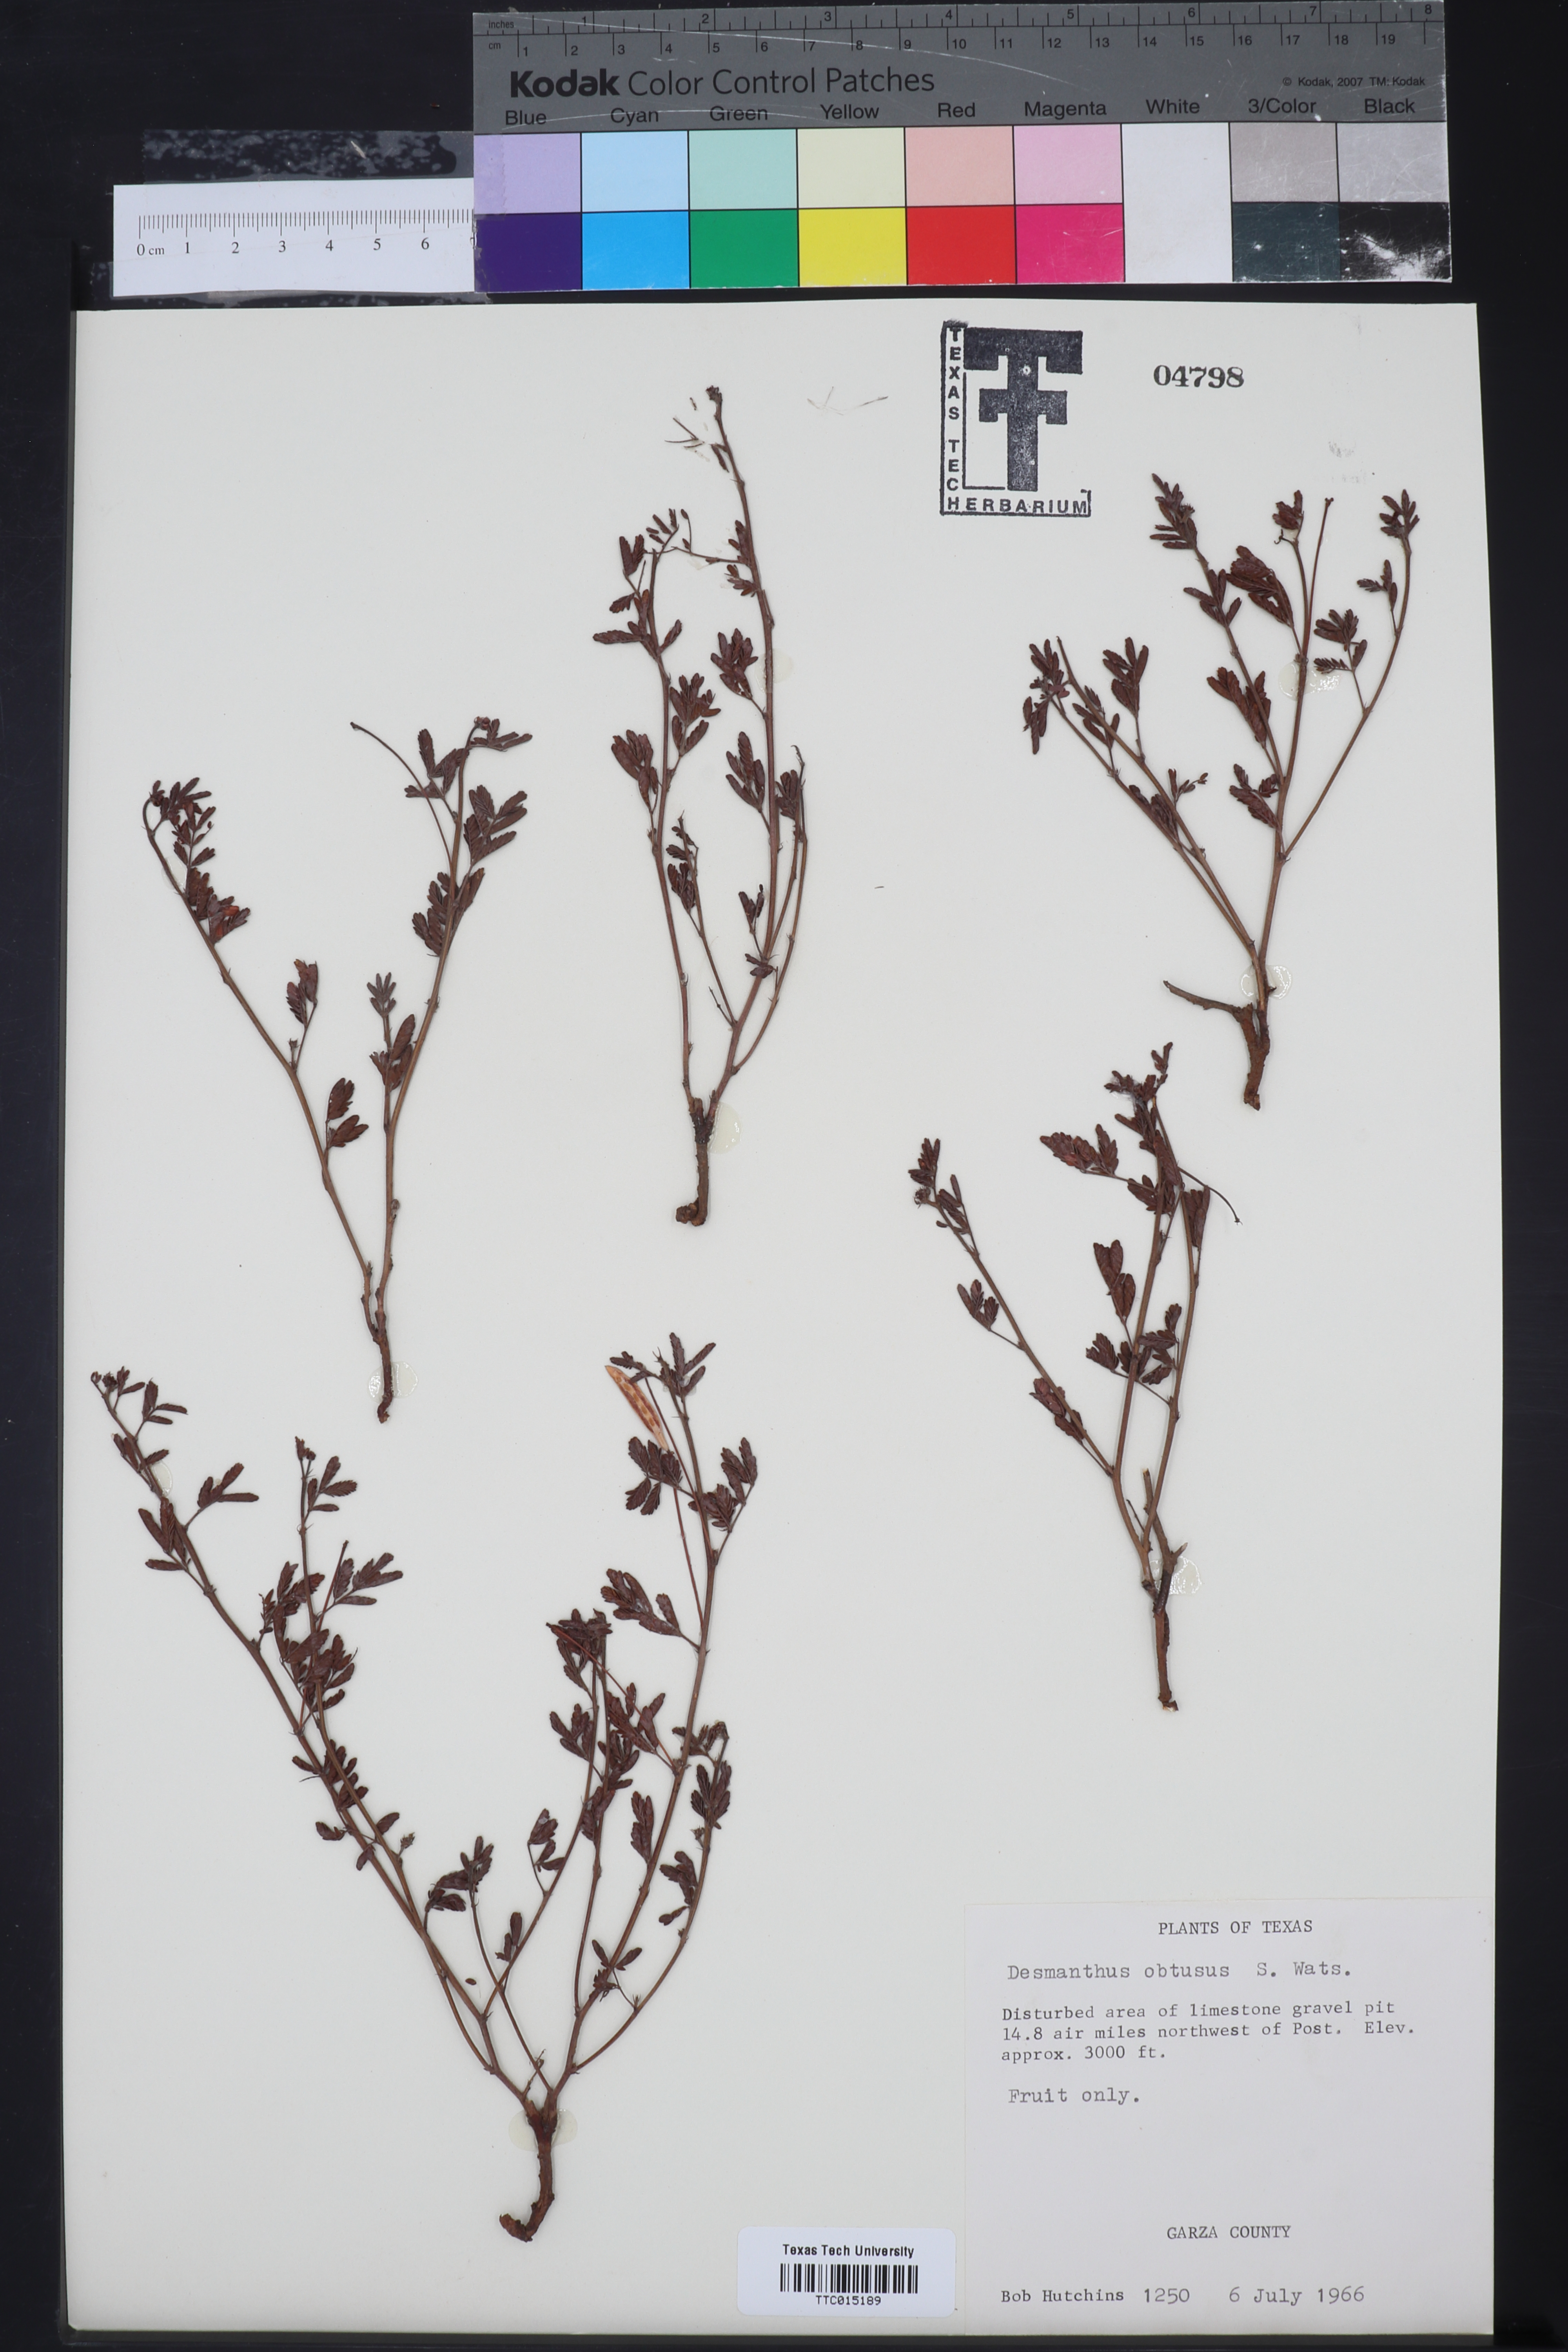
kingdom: Plantae
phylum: Tracheophyta
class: Magnoliopsida
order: Fabales
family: Fabaceae
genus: Desmanthus
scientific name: Desmanthus obtusus
